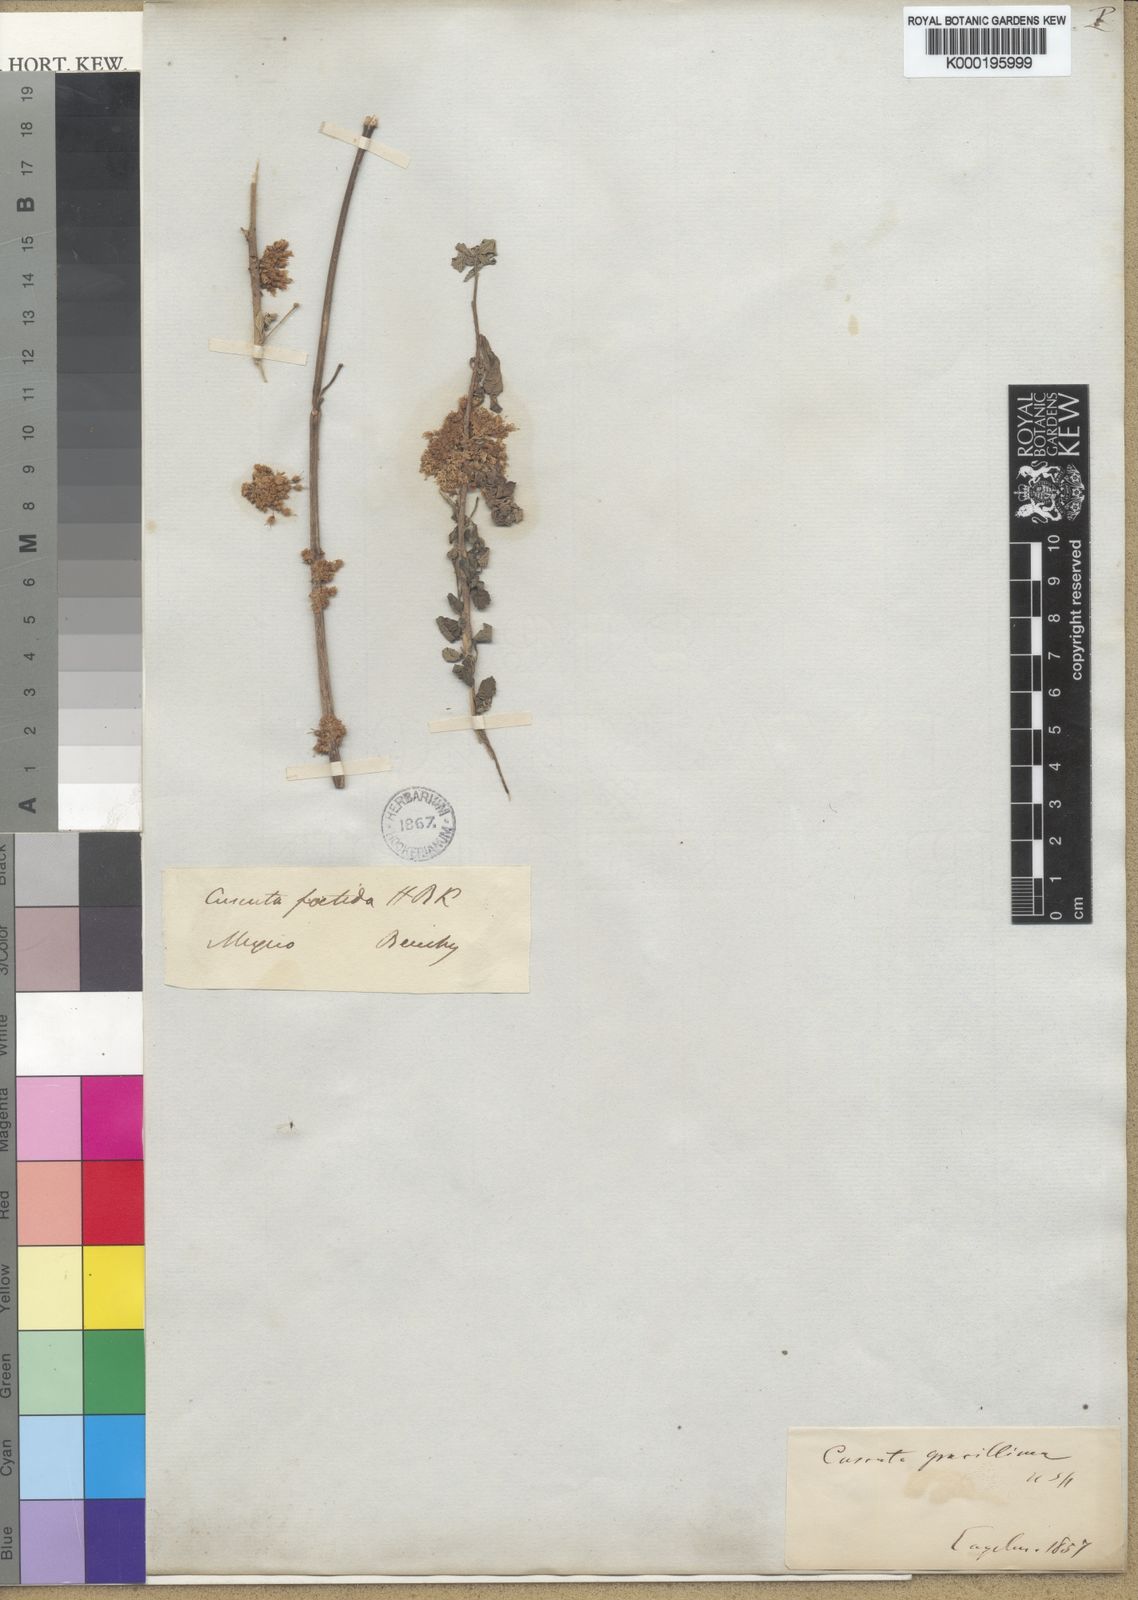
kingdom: Plantae
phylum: Tracheophyta
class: Magnoliopsida
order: Solanales
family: Convolvulaceae
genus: Cuscuta
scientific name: Cuscuta
